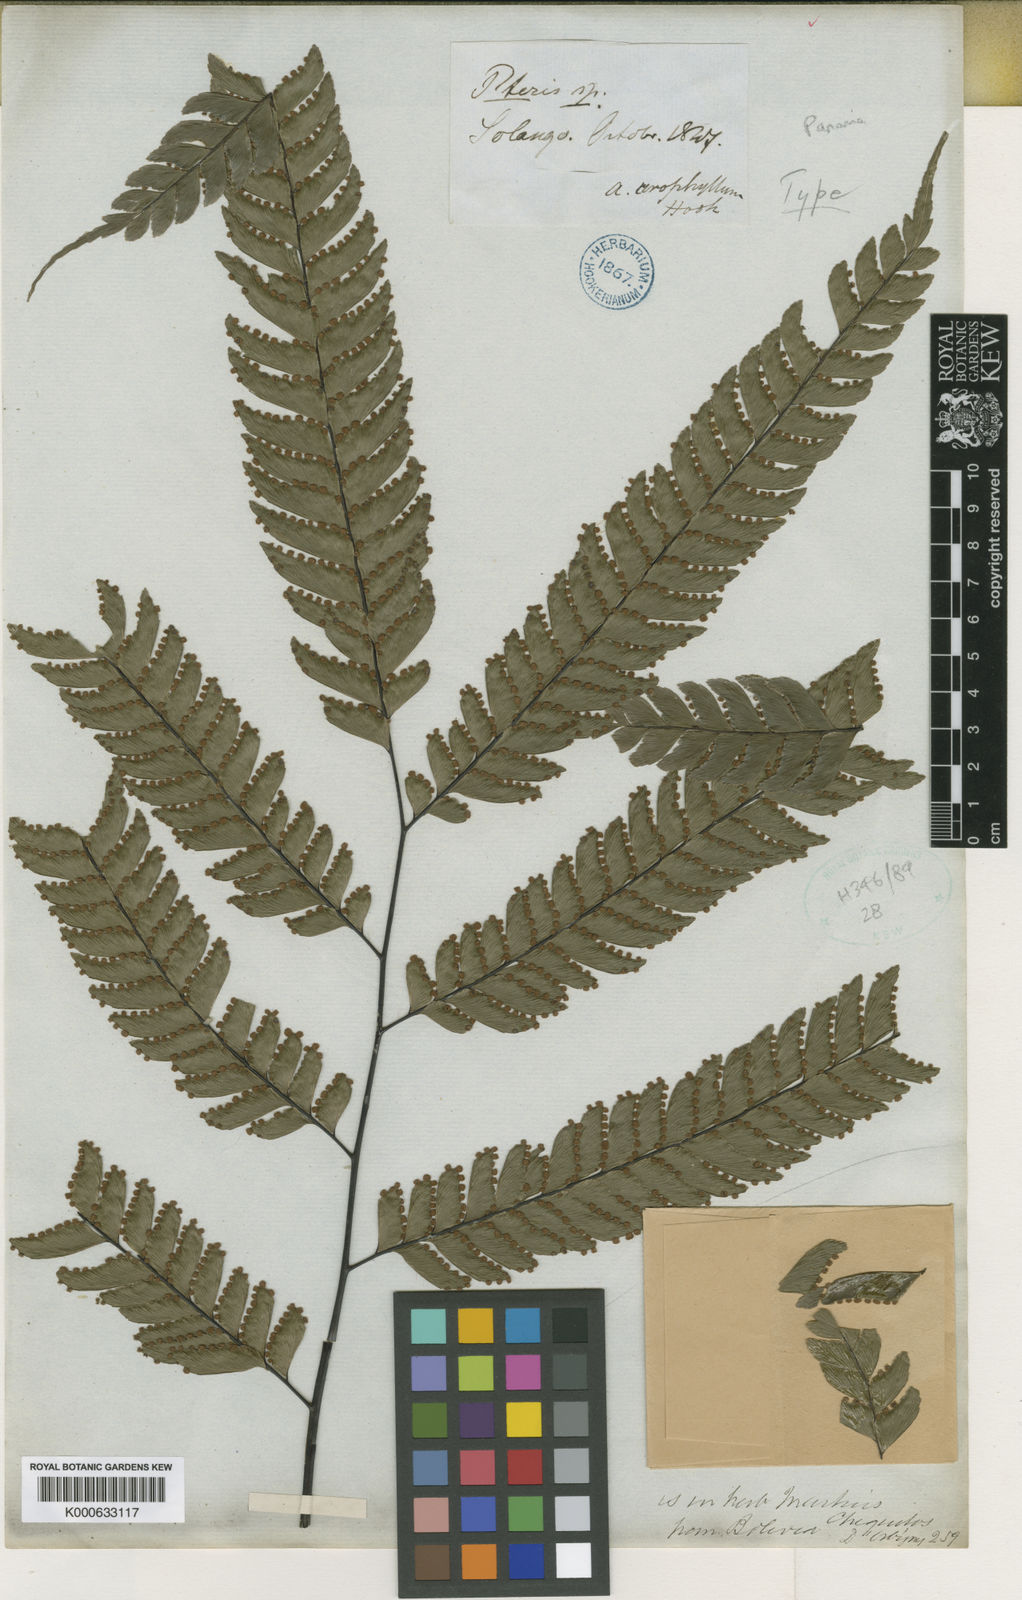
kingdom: Plantae
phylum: Tracheophyta
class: Polypodiopsida
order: Polypodiales
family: Pteridaceae
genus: Adiantum
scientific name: Adiantum urophyllum
